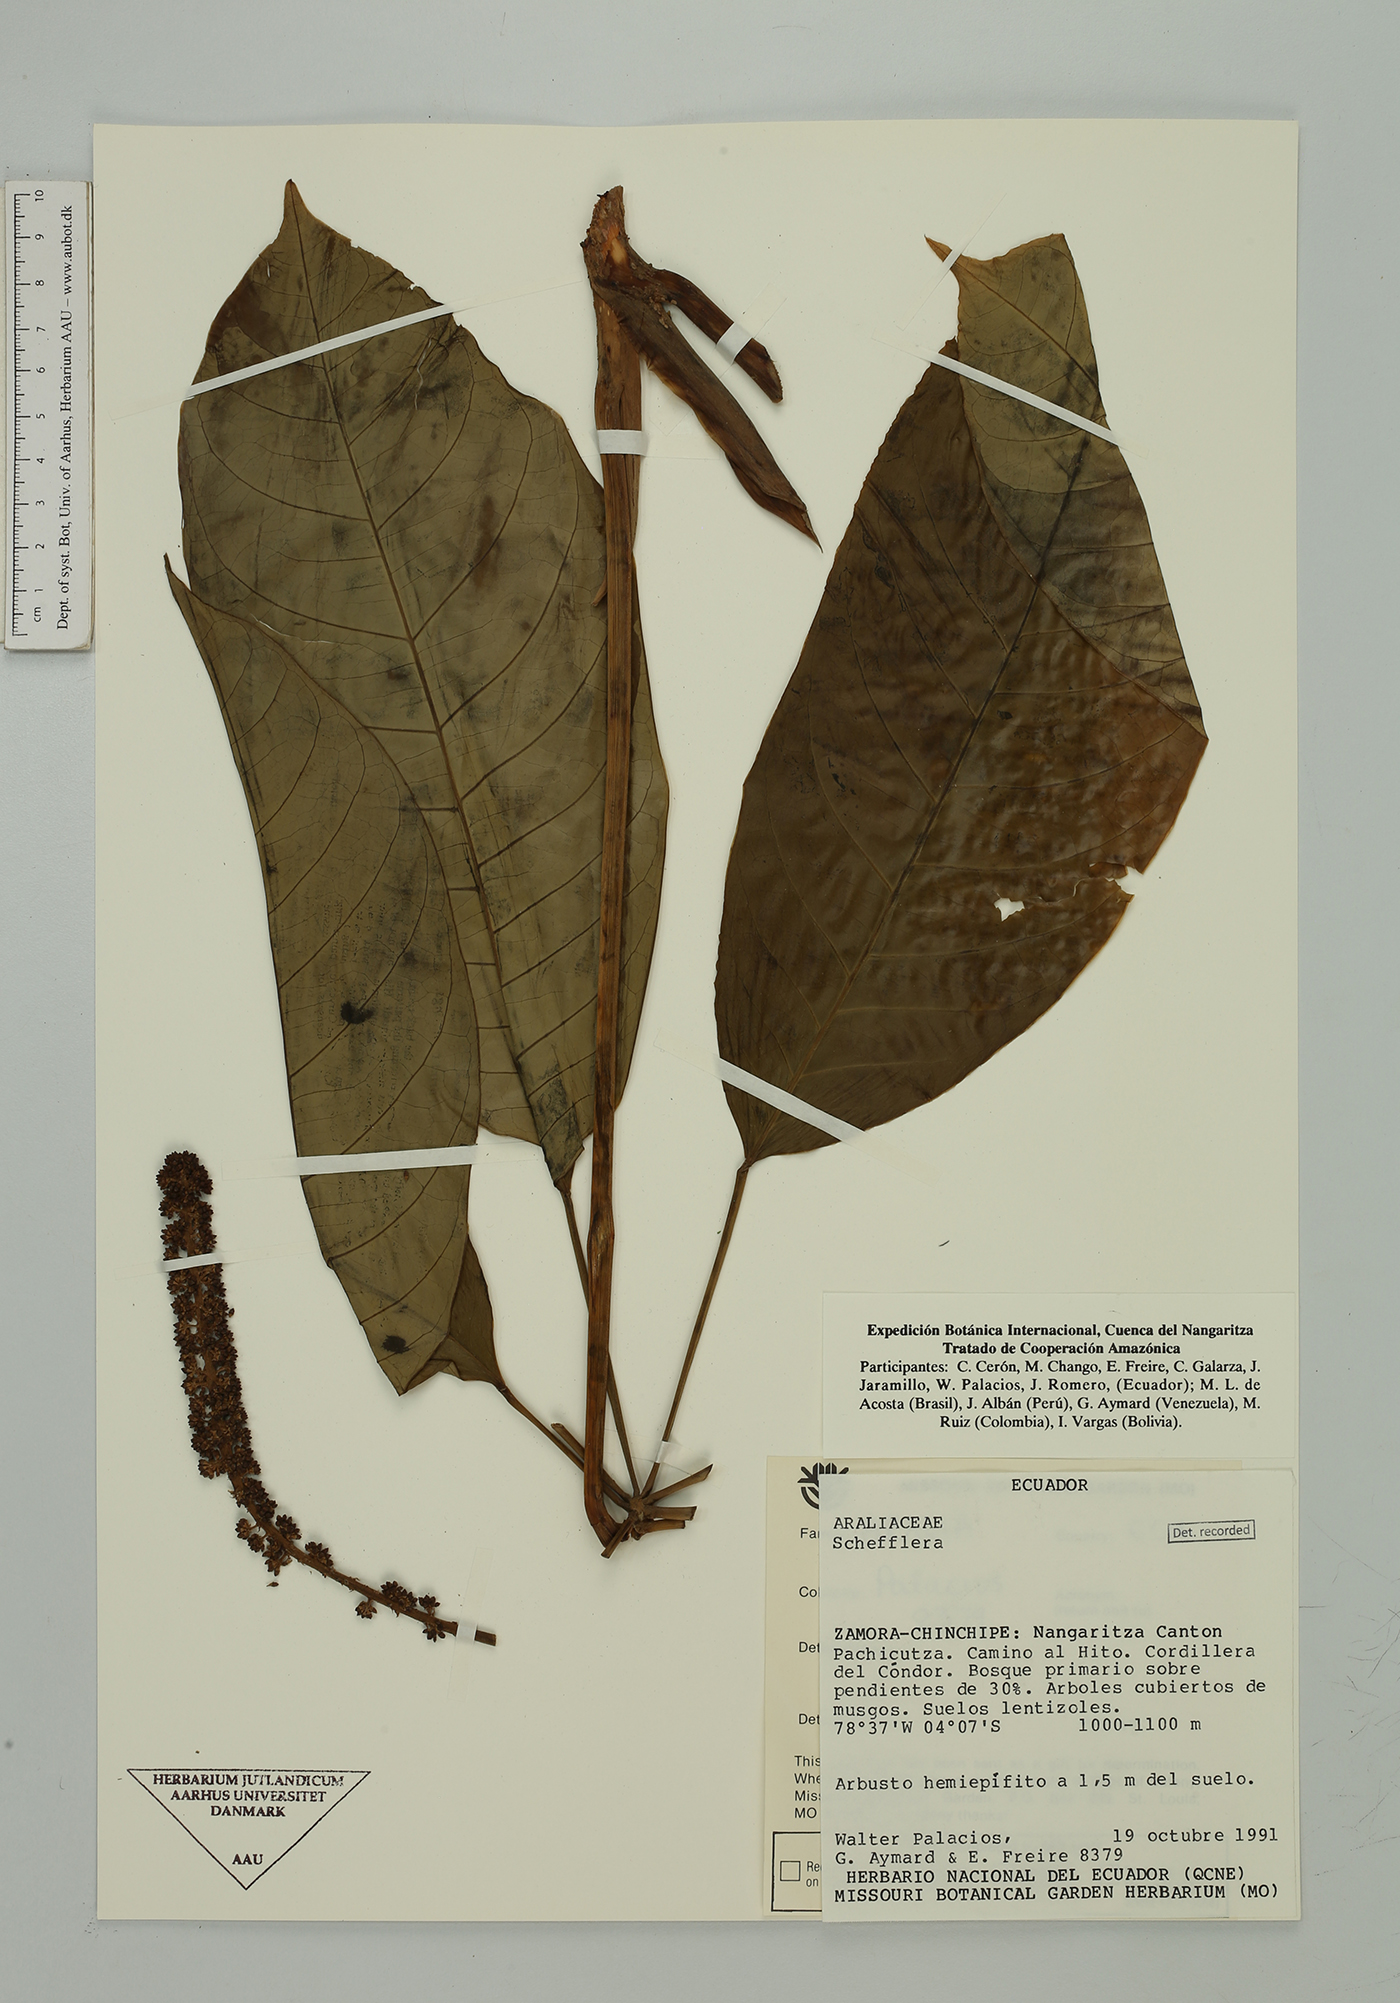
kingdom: Plantae
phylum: Tracheophyta
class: Magnoliopsida
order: Apiales
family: Araliaceae
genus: Sciodaphyllum
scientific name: Sciodaphyllum
